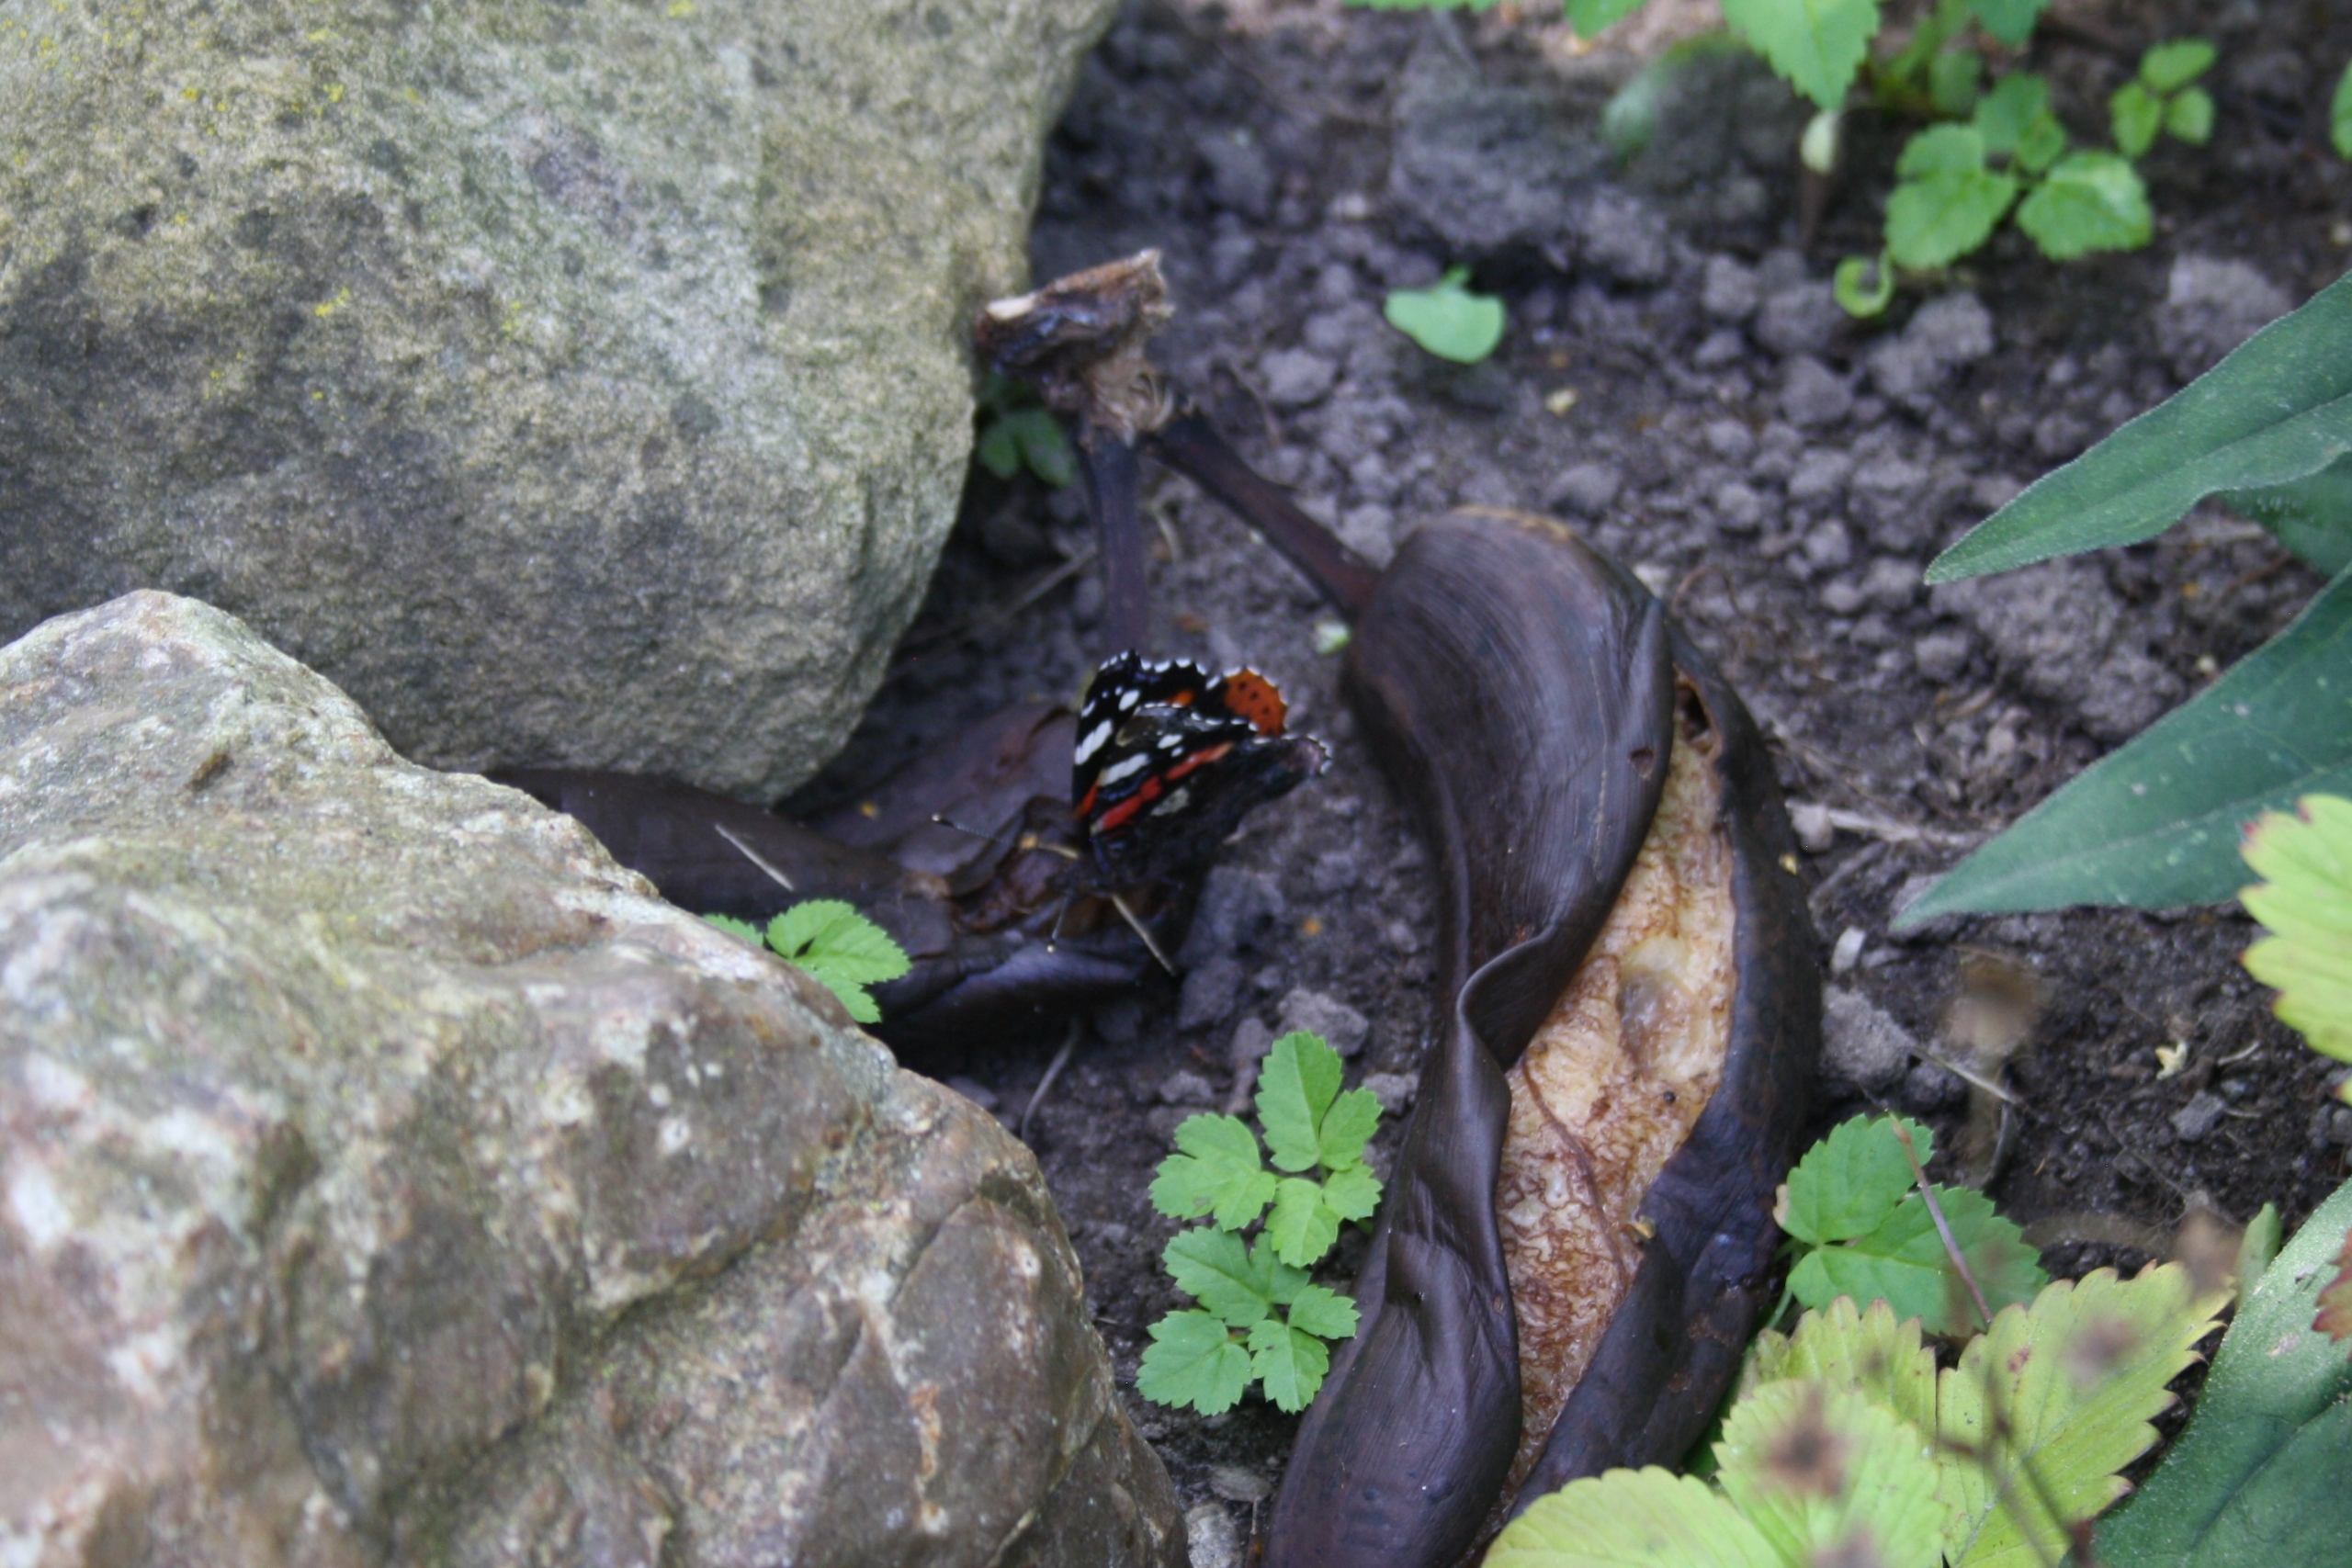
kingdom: Animalia
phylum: Arthropoda
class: Insecta
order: Lepidoptera
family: Nymphalidae
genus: Vanessa
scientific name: Vanessa atalanta
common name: Admiral
